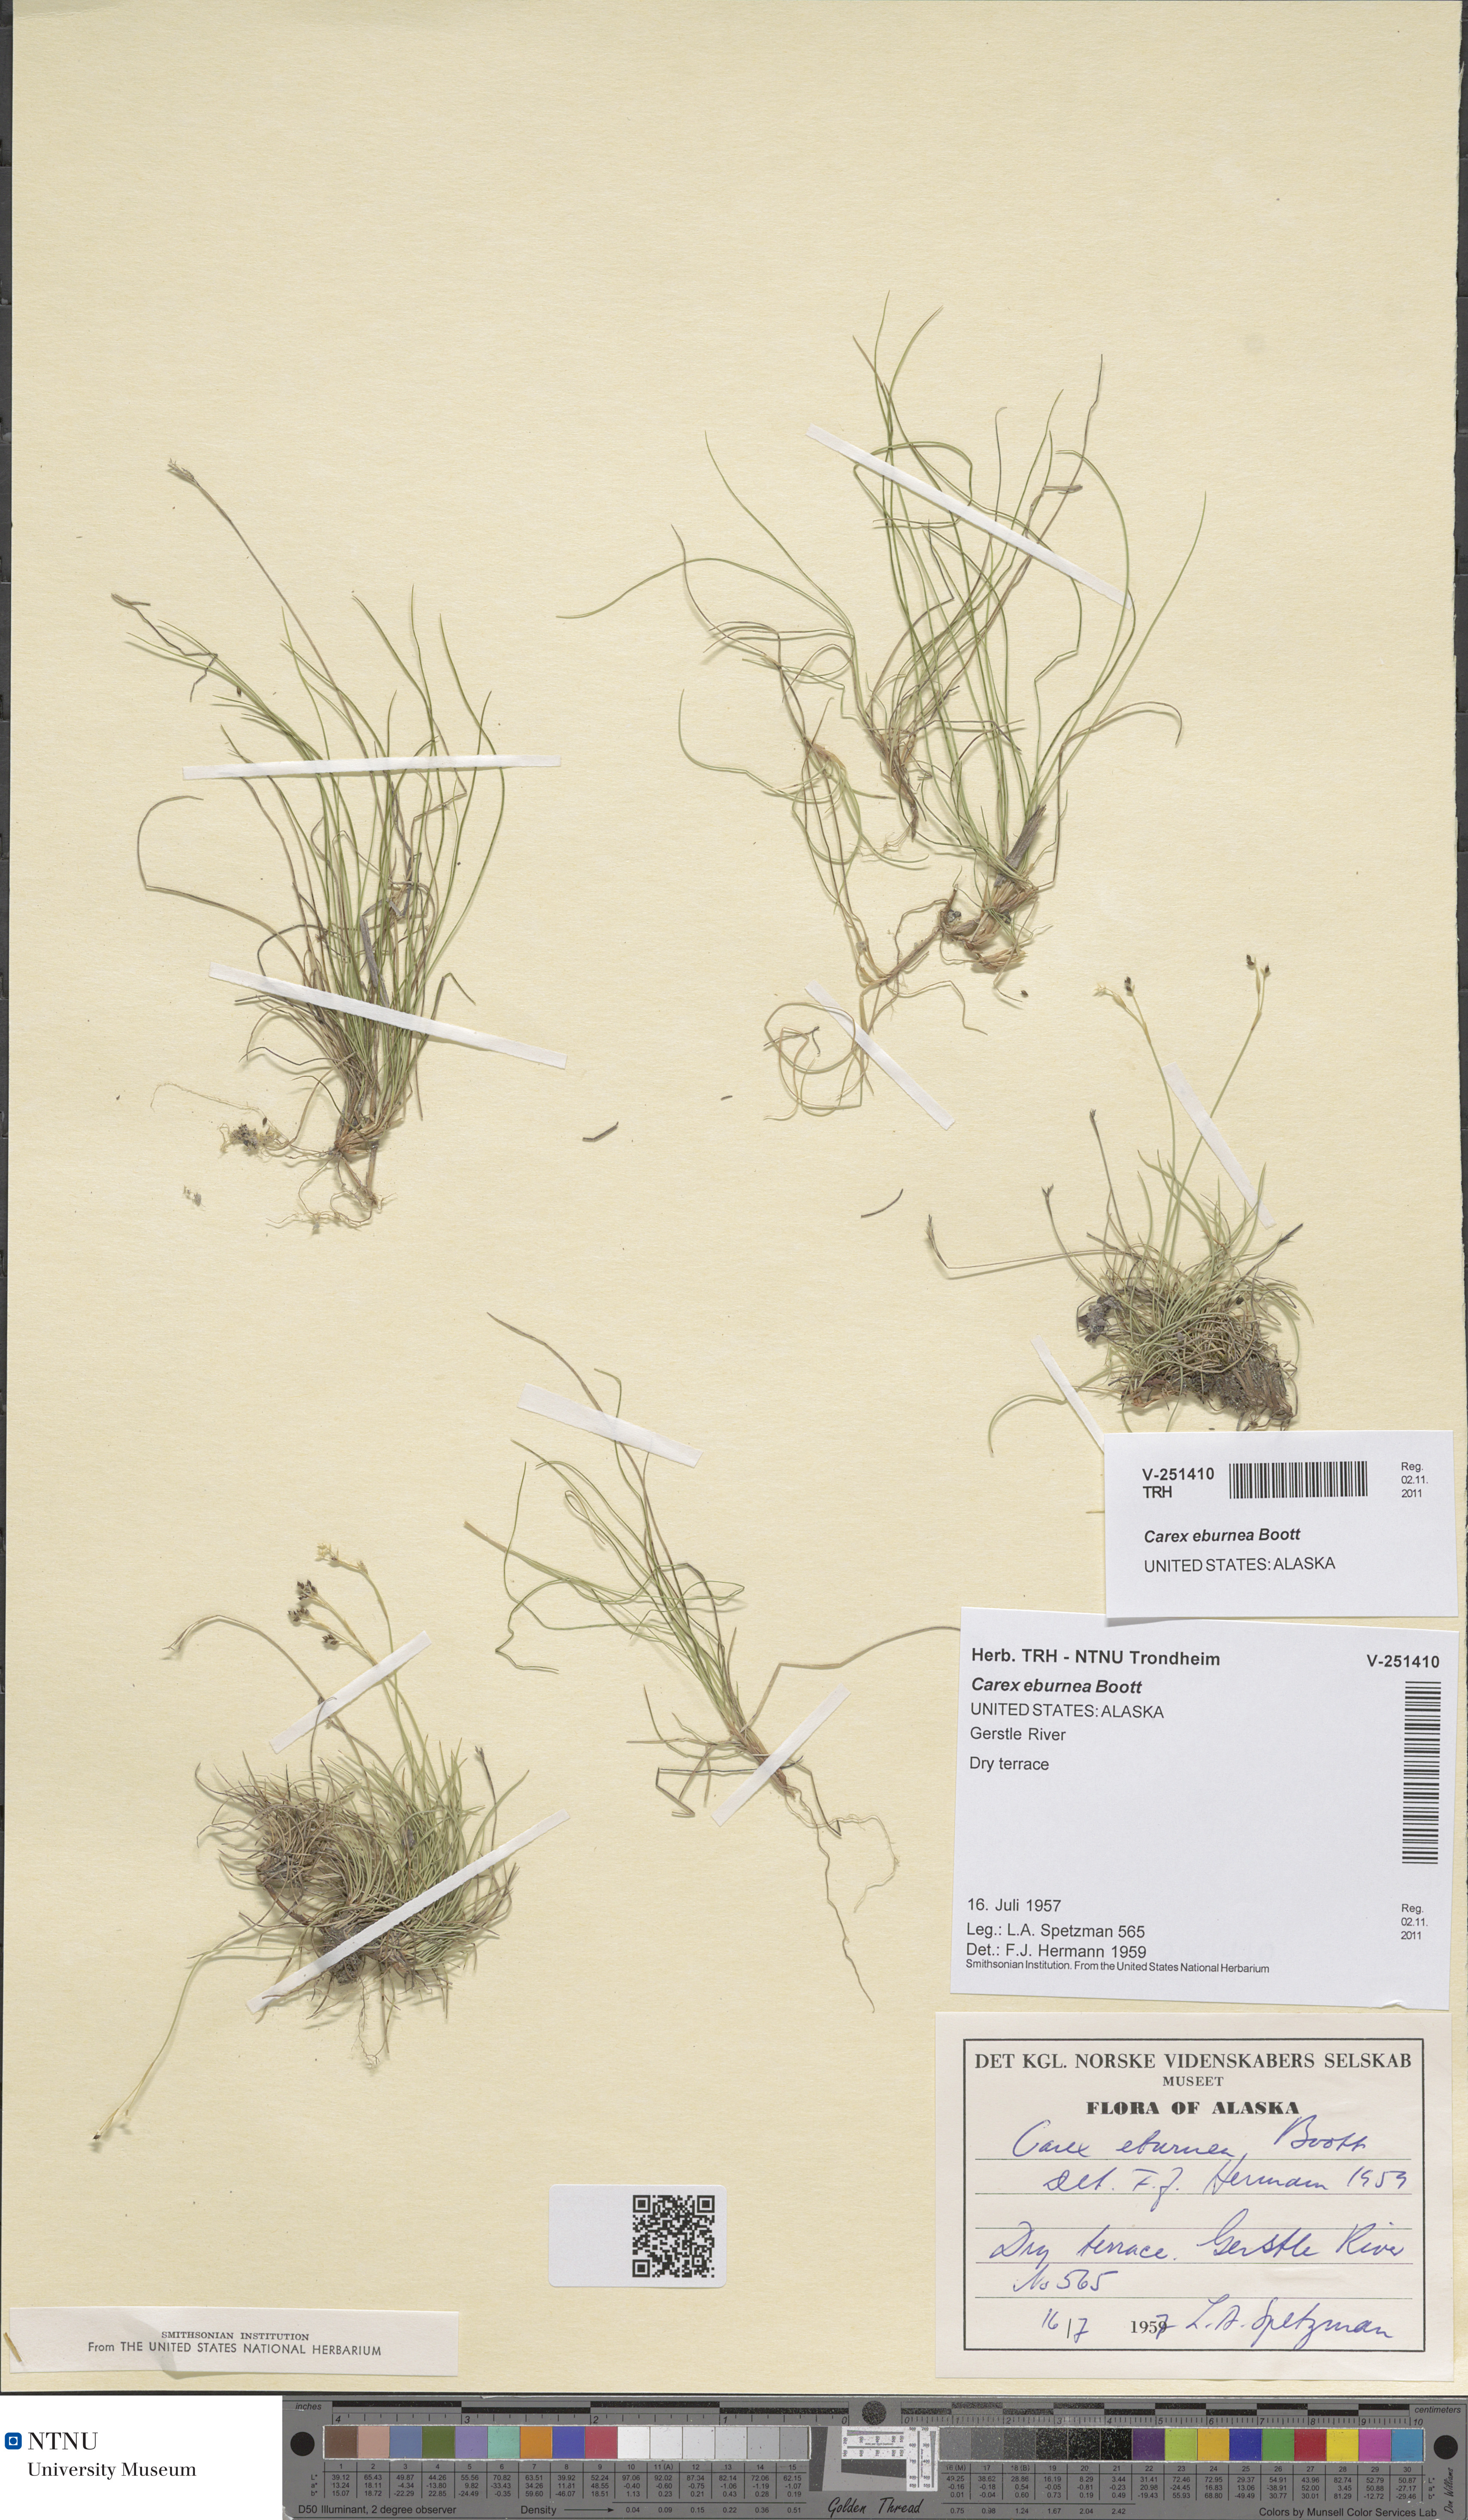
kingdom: Plantae
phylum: Tracheophyta
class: Liliopsida
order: Poales
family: Cyperaceae
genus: Carex
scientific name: Carex eburnea
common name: Bristle-leaved sedge
